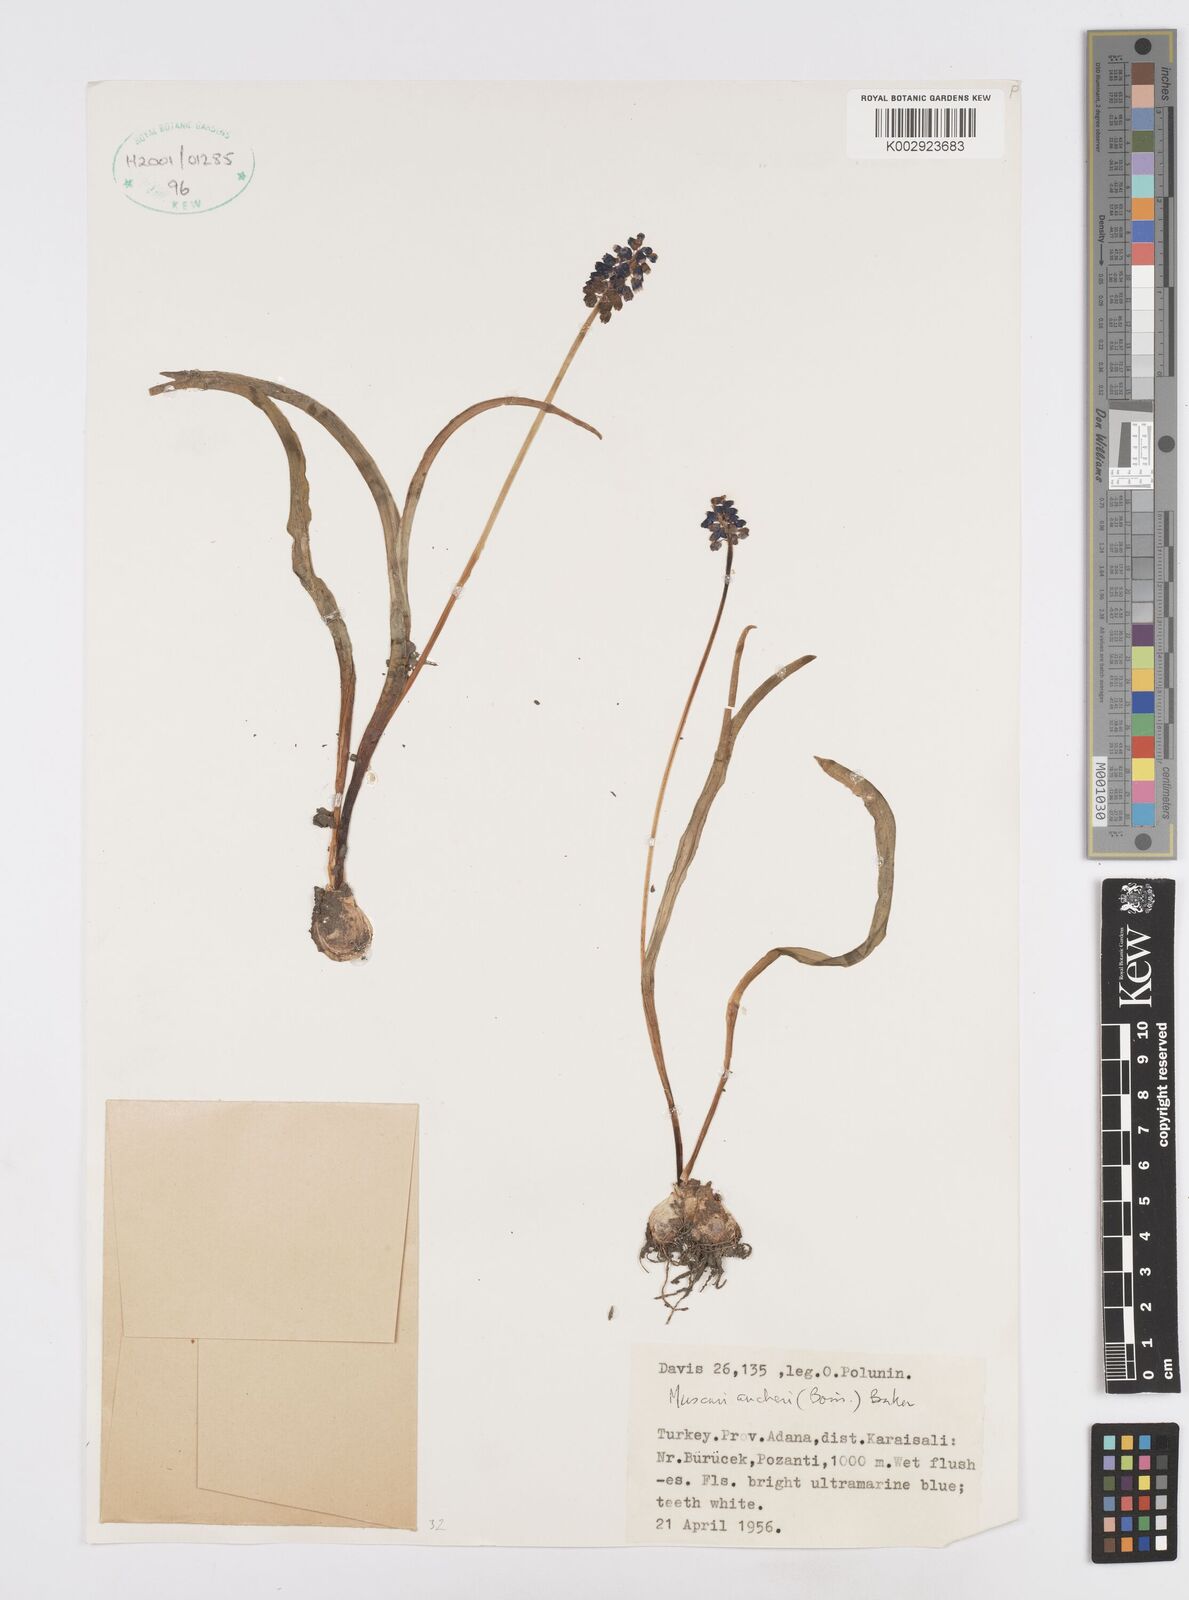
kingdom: Plantae
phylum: Tracheophyta
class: Liliopsida
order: Asparagales
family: Asparagaceae
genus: Muscari
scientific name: Muscari aucheri
